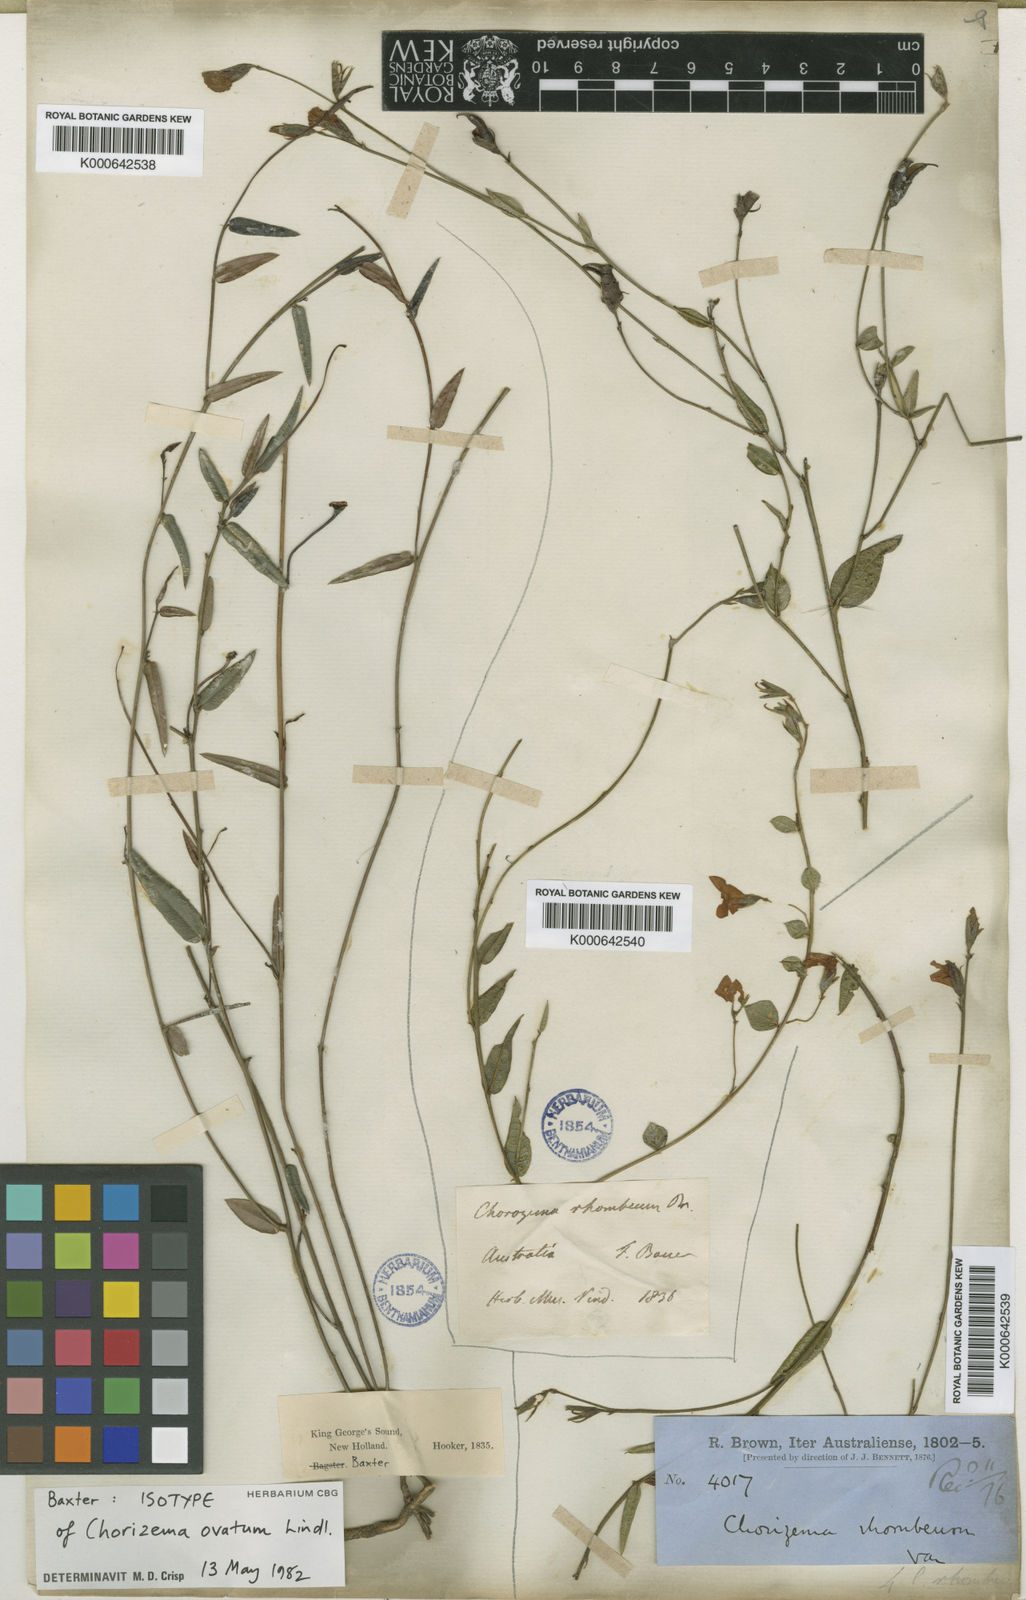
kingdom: Plantae
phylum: Tracheophyta
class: Magnoliopsida
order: Fabales
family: Fabaceae
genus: Chorizema
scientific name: Chorizema rhombeum
